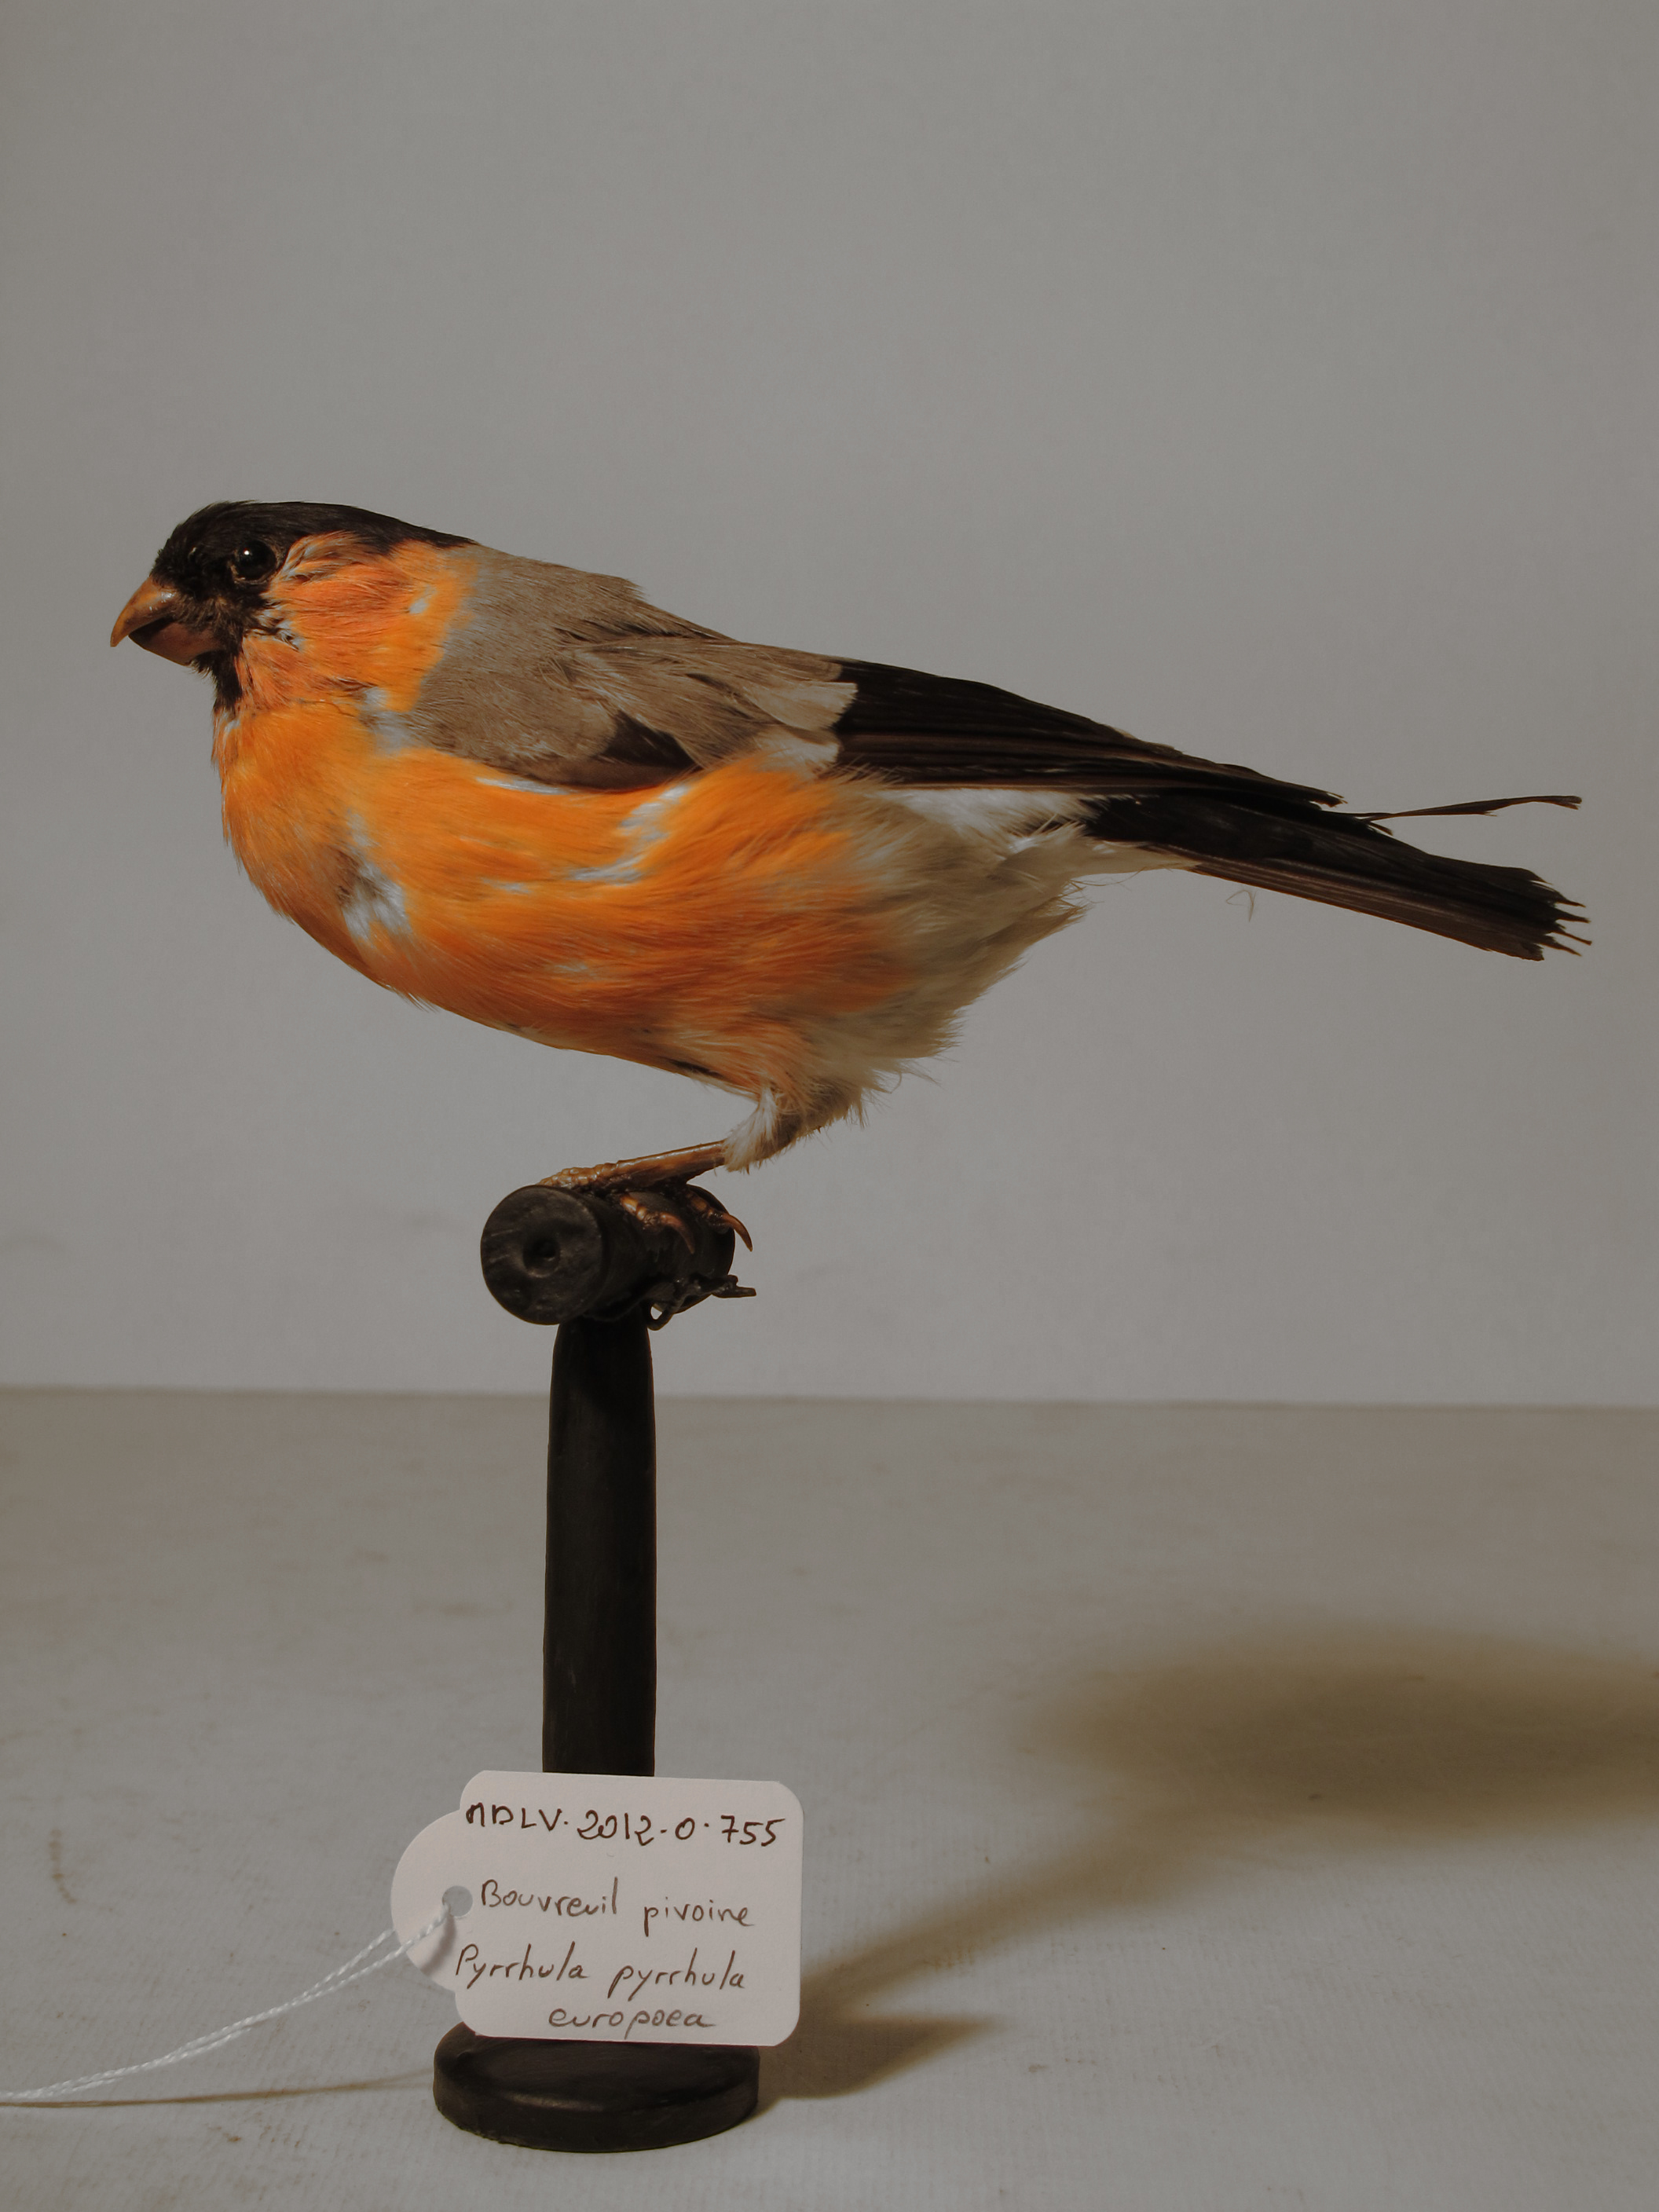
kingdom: Animalia
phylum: Chordata
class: Aves
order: Passeriformes
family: Fringillidae
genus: Pyrrhula
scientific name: Pyrrhula pyrrhula
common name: Eurasian Bullfinch
